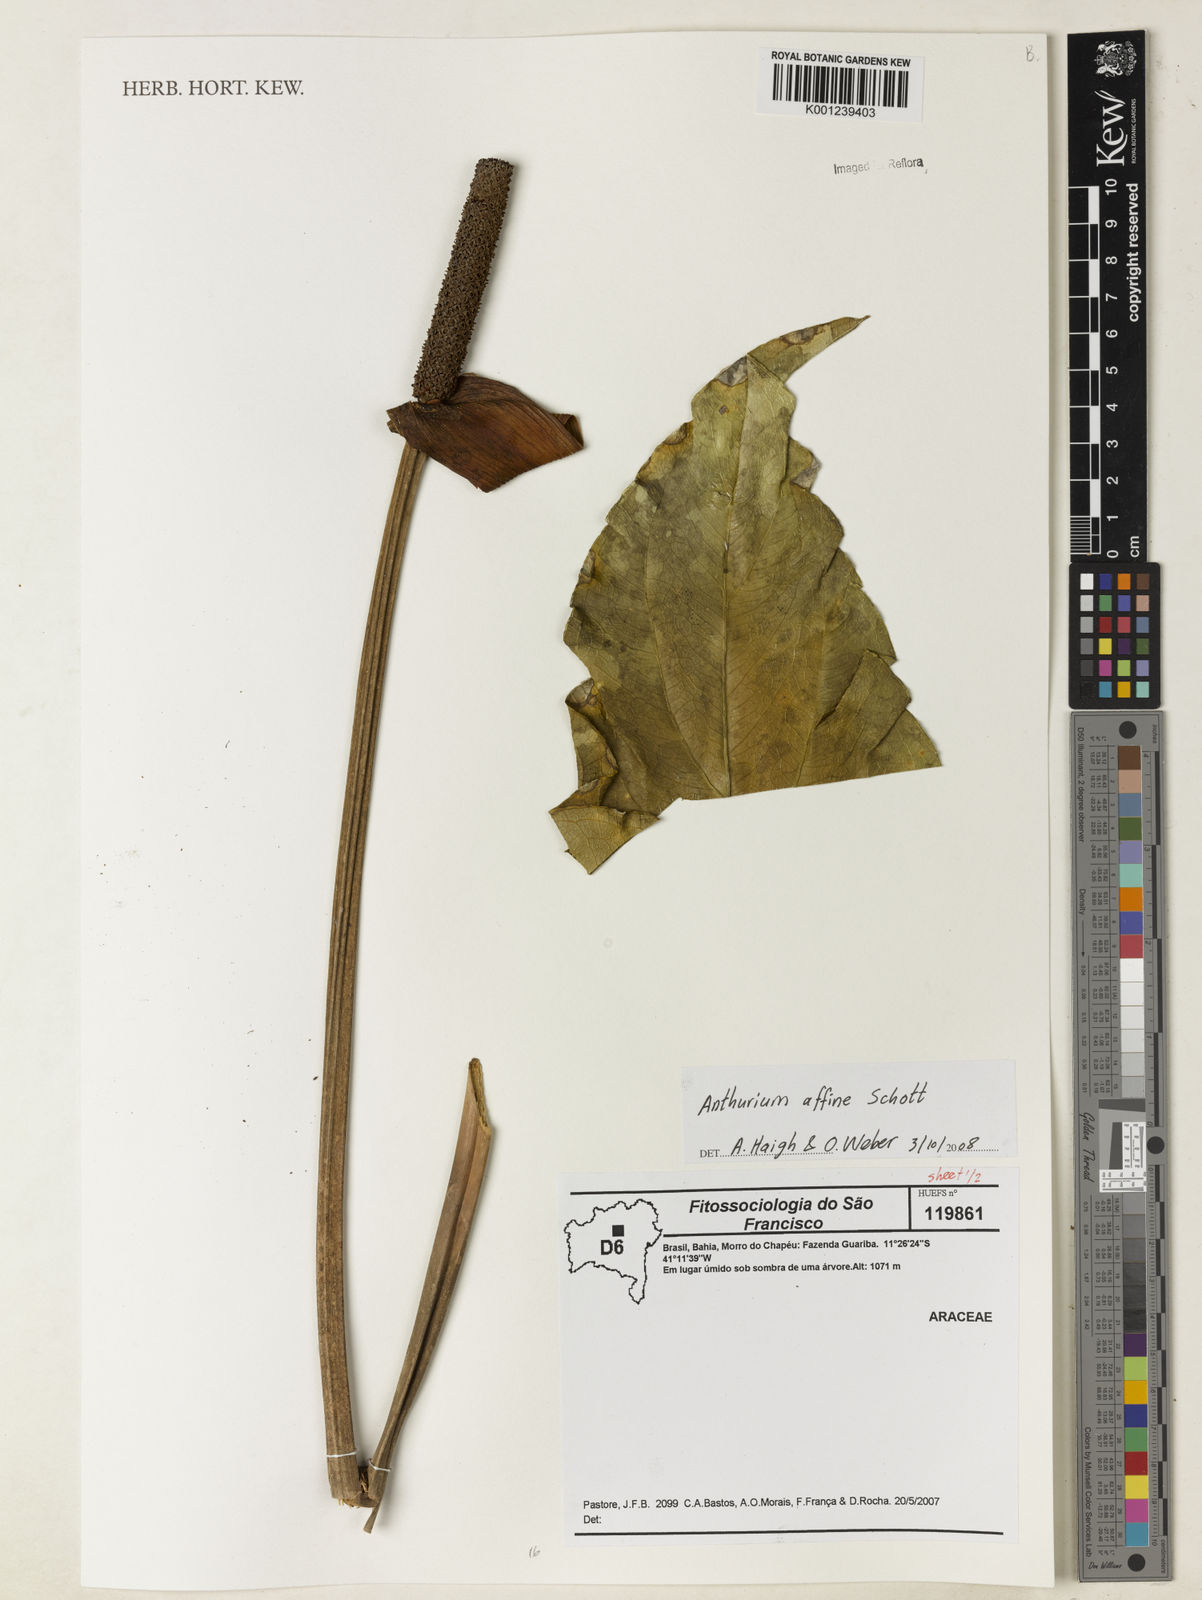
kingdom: Plantae
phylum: Tracheophyta
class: Liliopsida
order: Alismatales
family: Araceae
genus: Anthurium
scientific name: Anthurium affine
